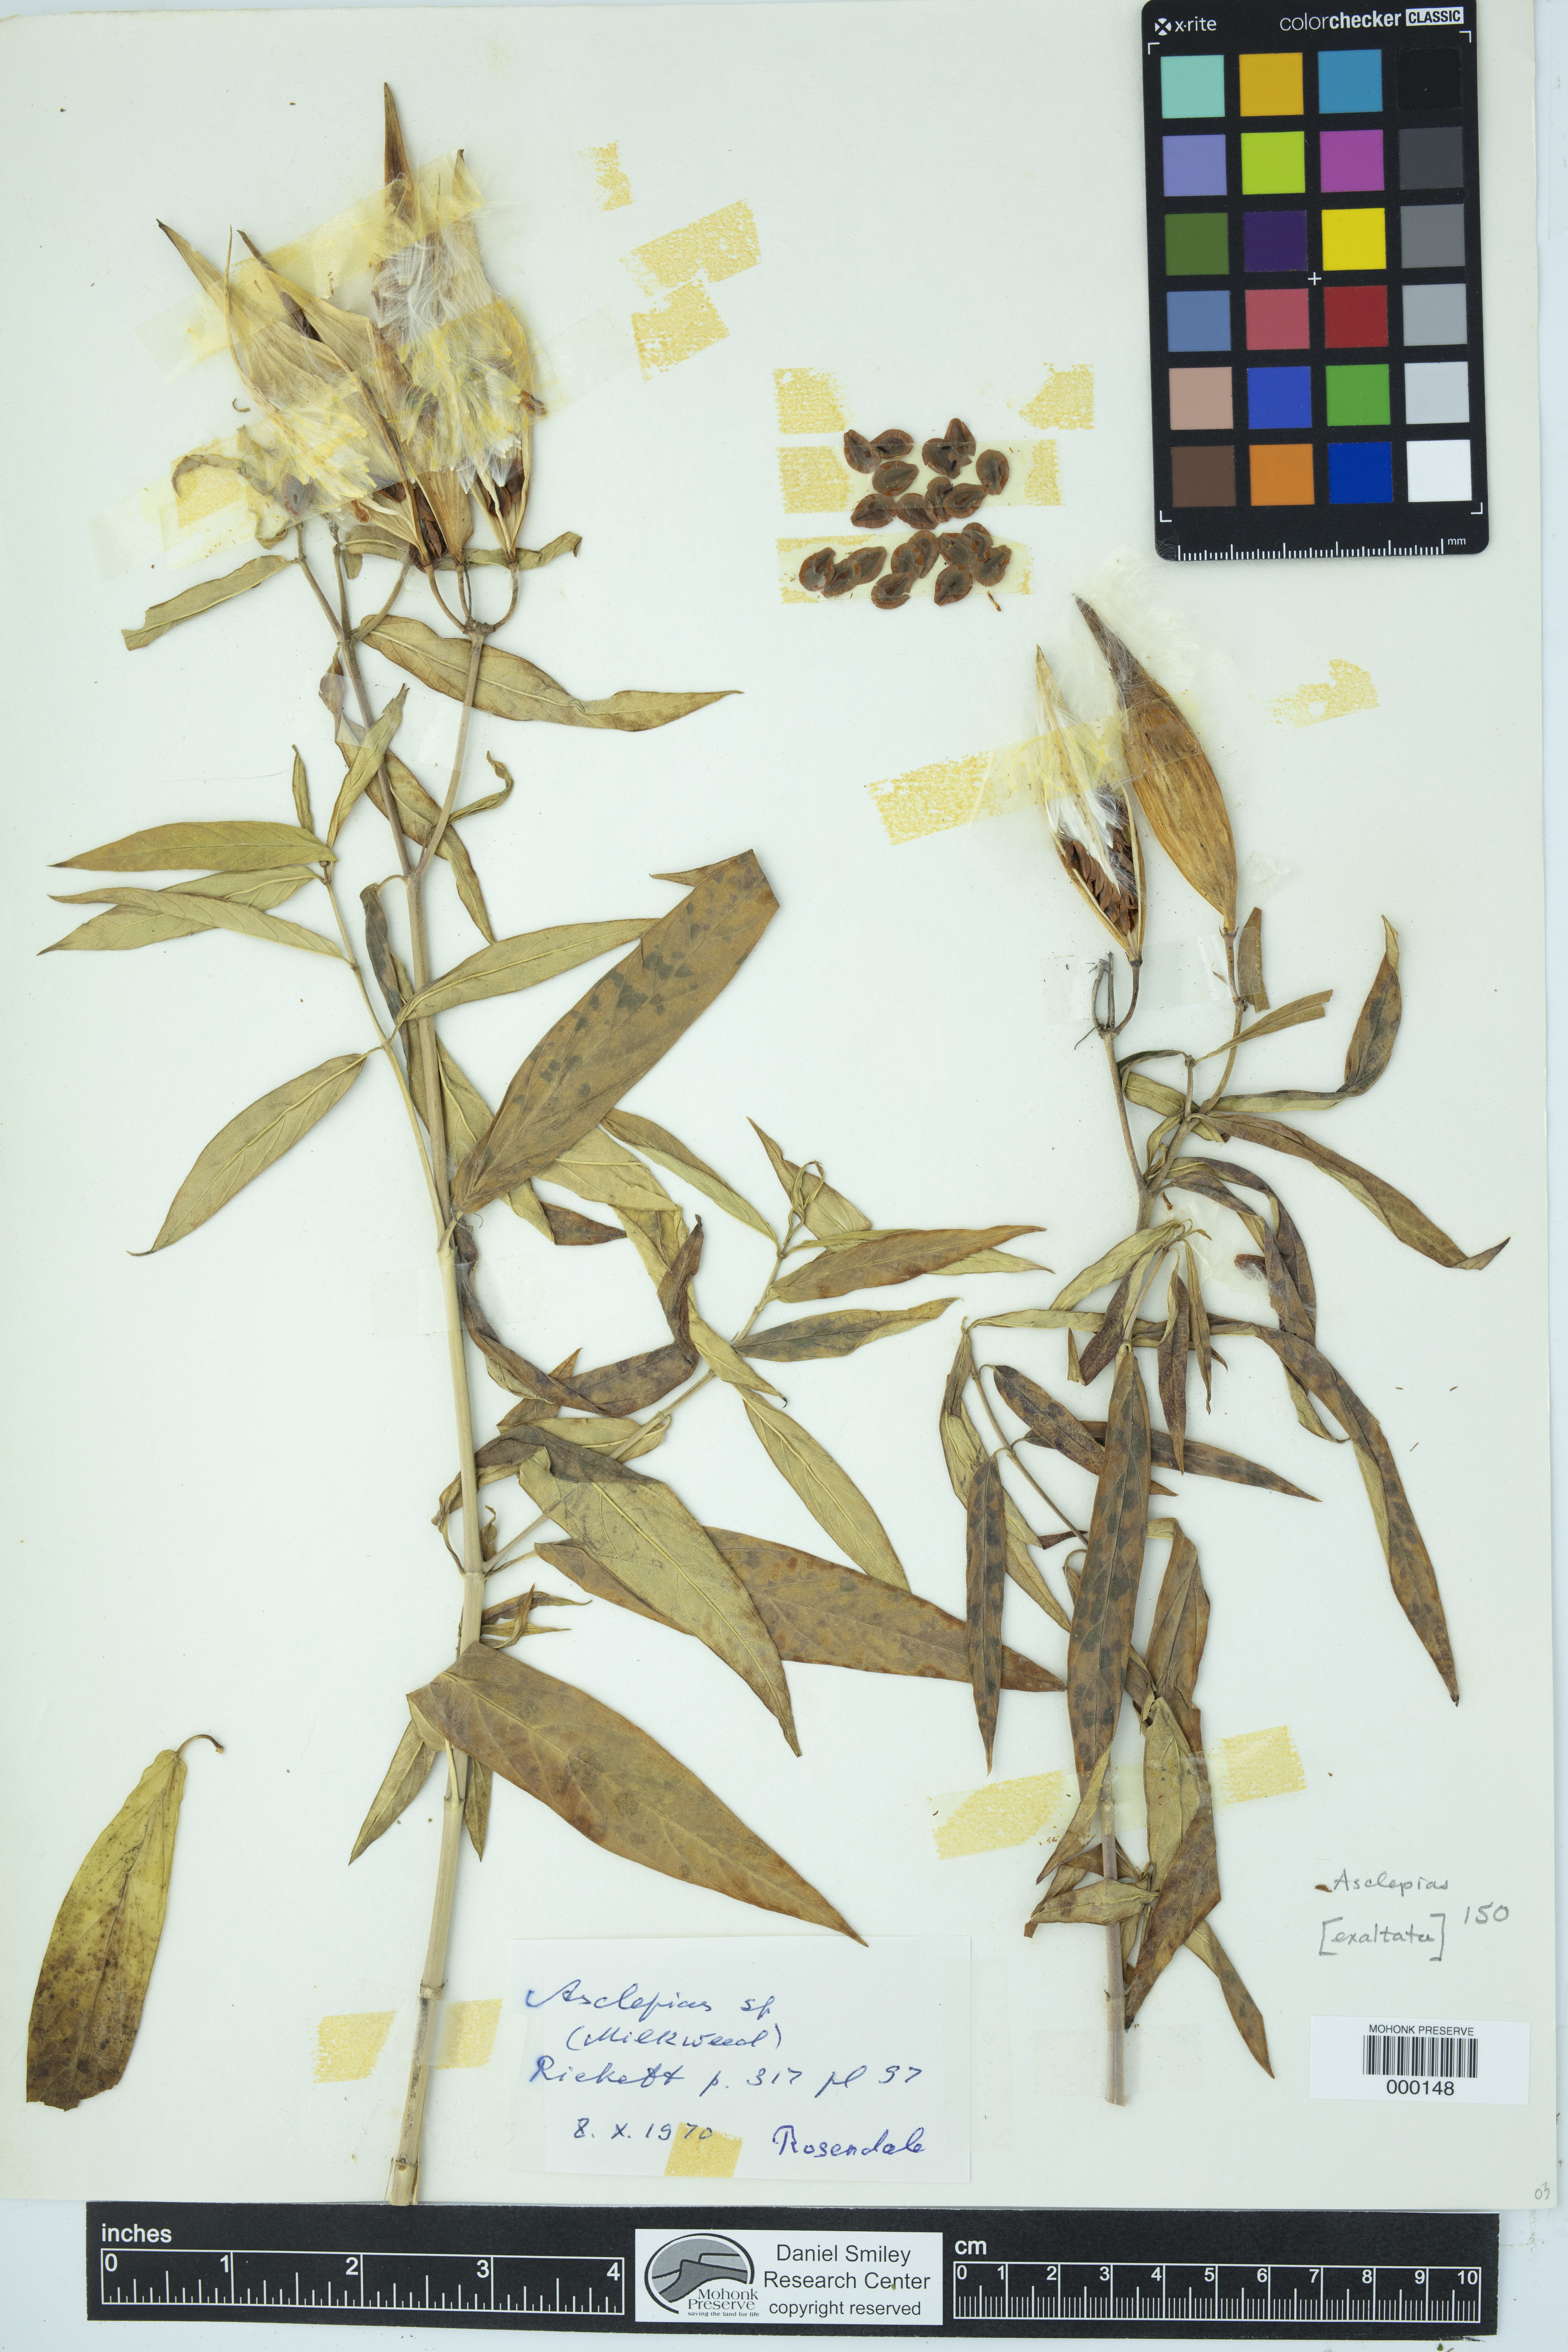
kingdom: Plantae
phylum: Tracheophyta
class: Magnoliopsida
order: Gentianales
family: Apocynaceae
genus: Asclepias
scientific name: Asclepias exaltata
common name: Poke milkweed
